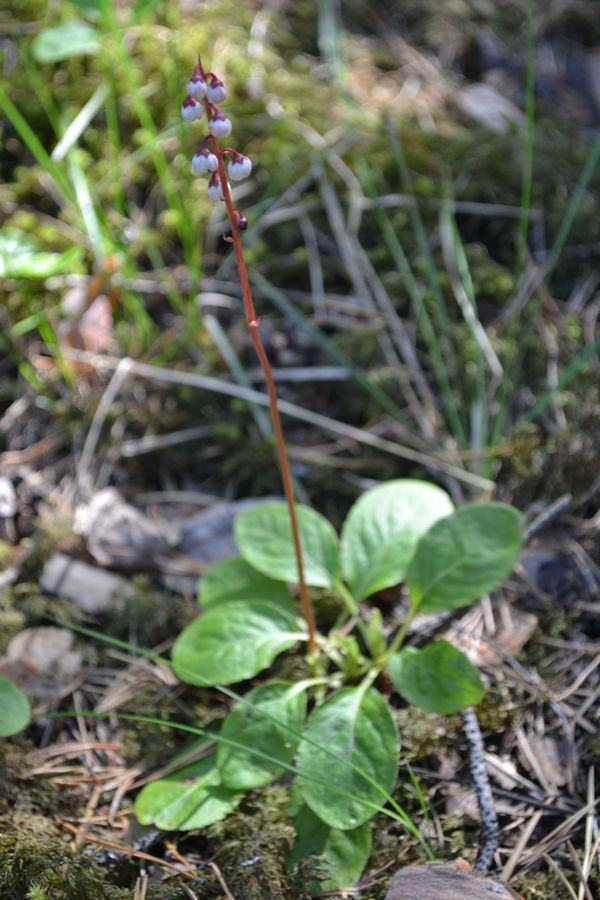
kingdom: Plantae
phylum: Tracheophyta
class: Magnoliopsida
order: Ericales
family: Ericaceae
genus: Pyrola
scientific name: Pyrola minor
